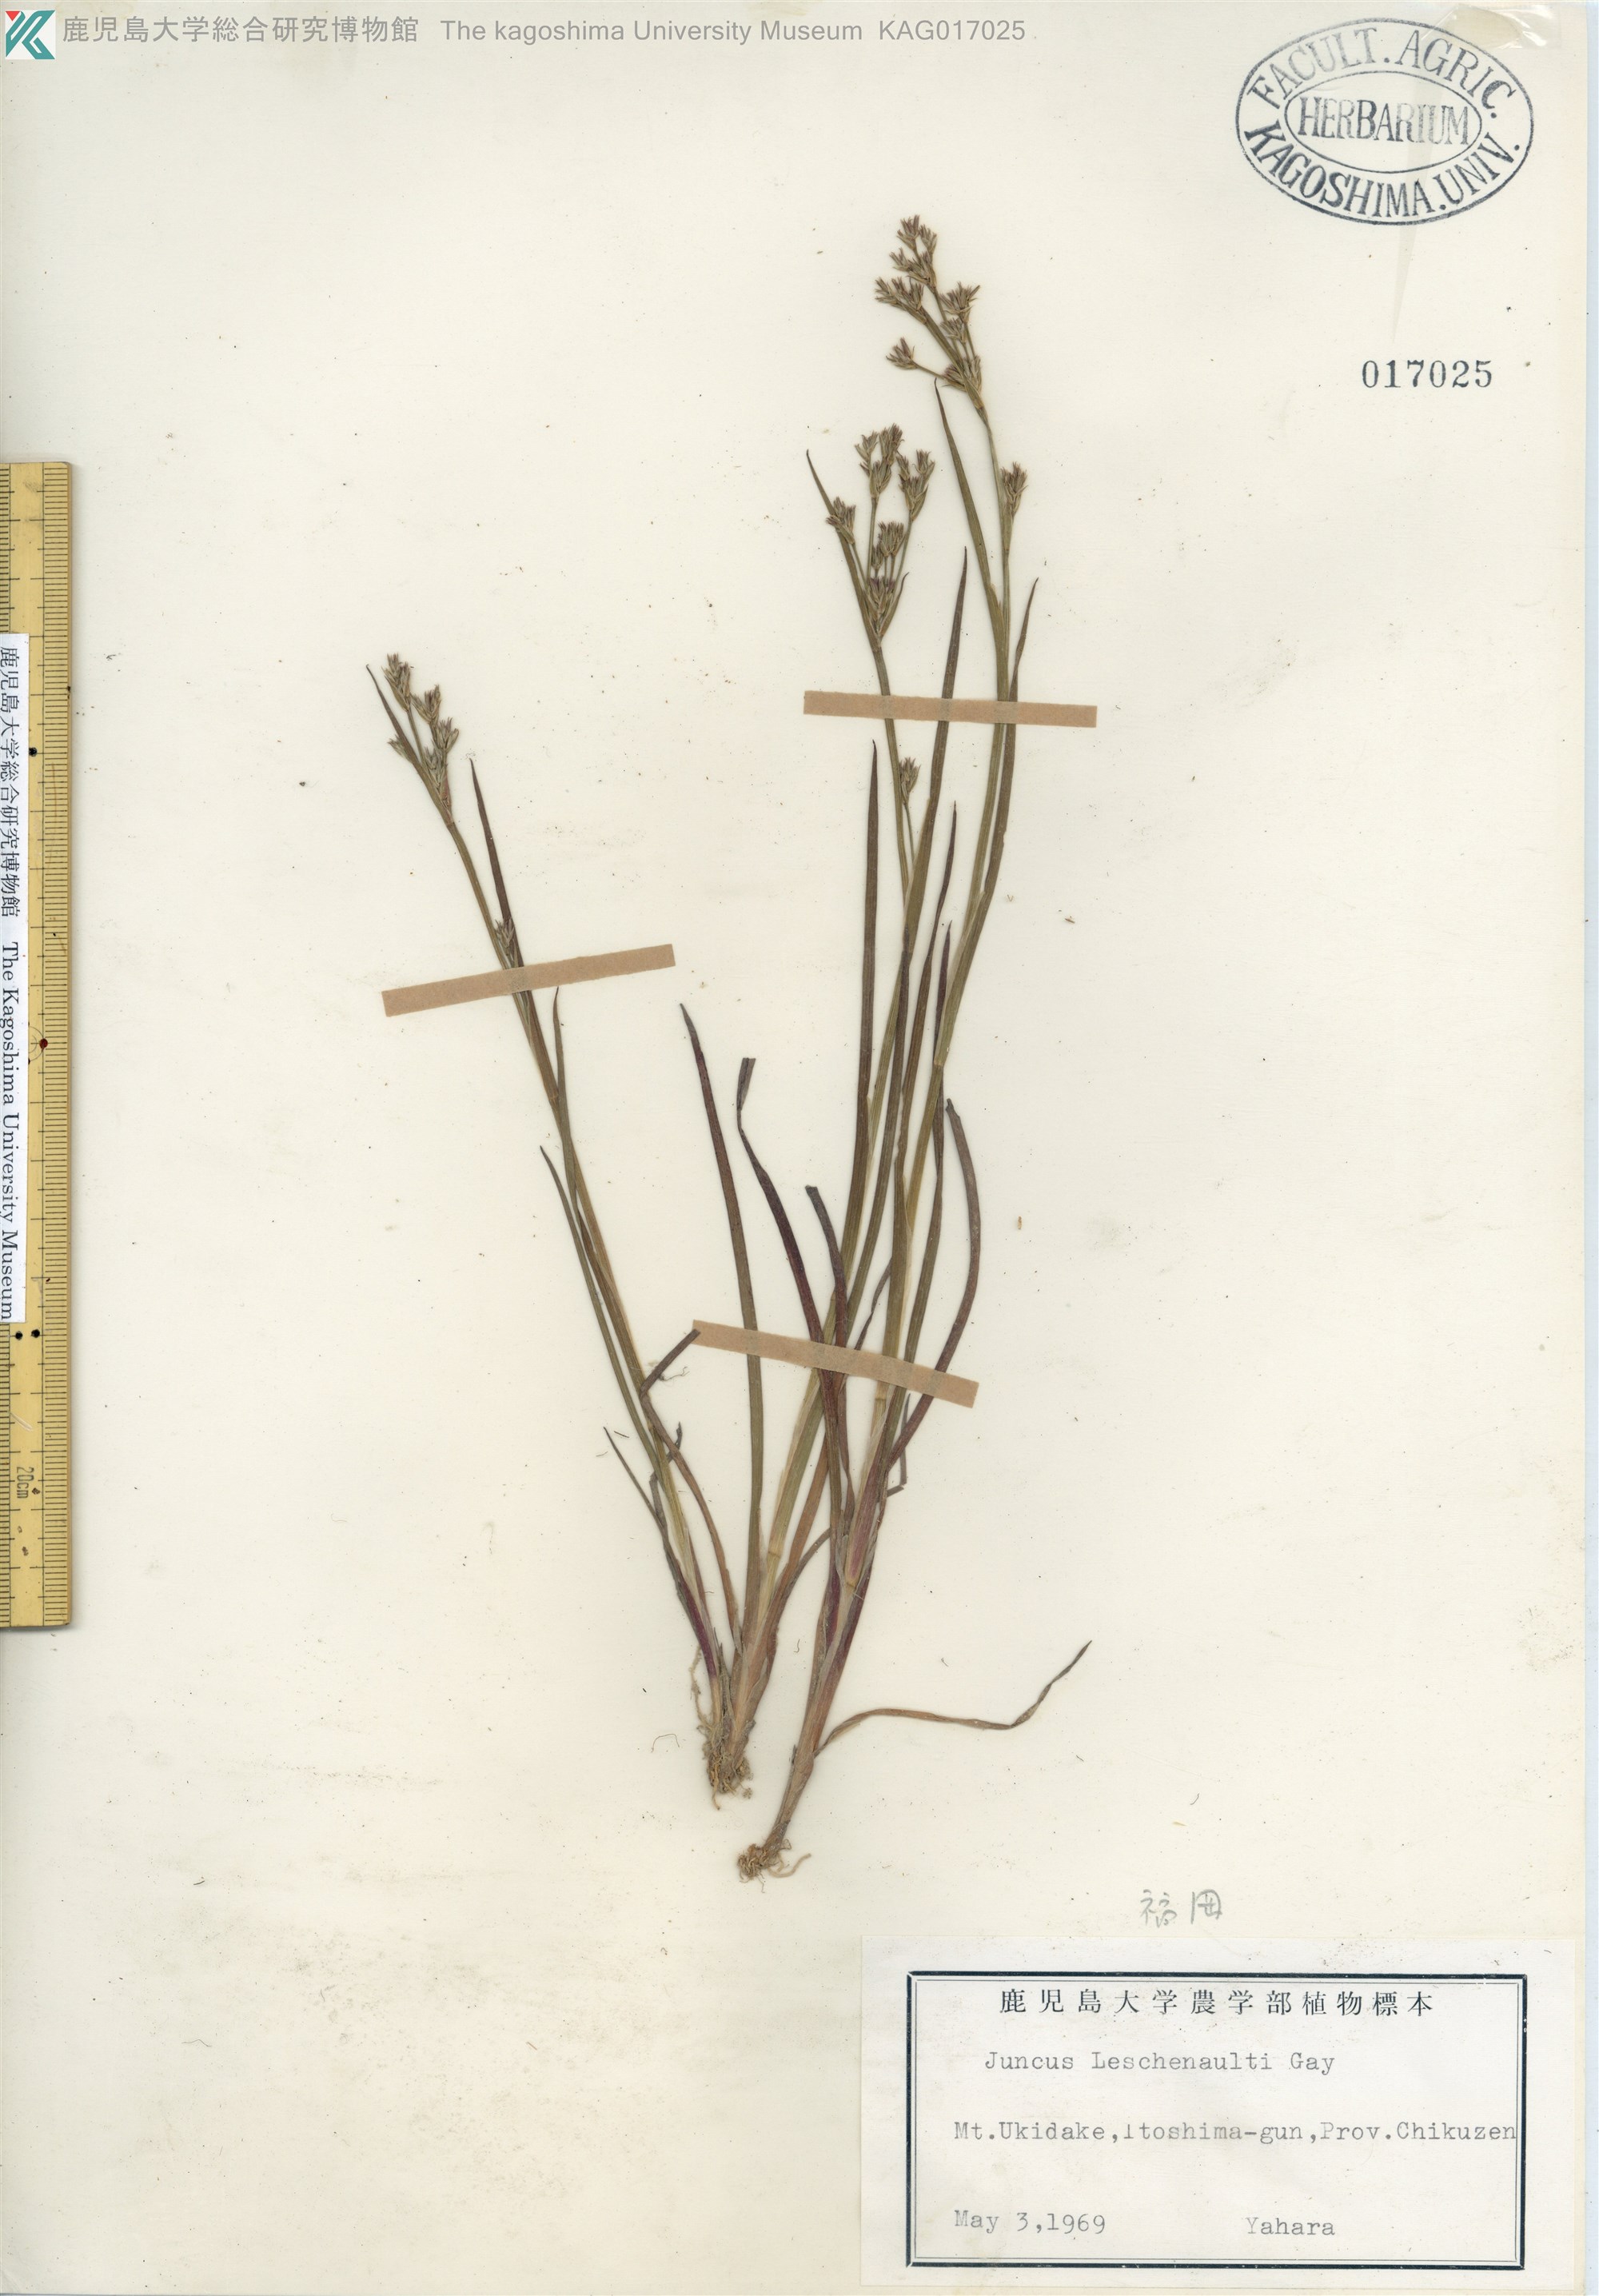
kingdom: Plantae
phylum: Tracheophyta
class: Liliopsida
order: Poales
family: Juncaceae
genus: Juncus
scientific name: Juncus prismatocarpus
